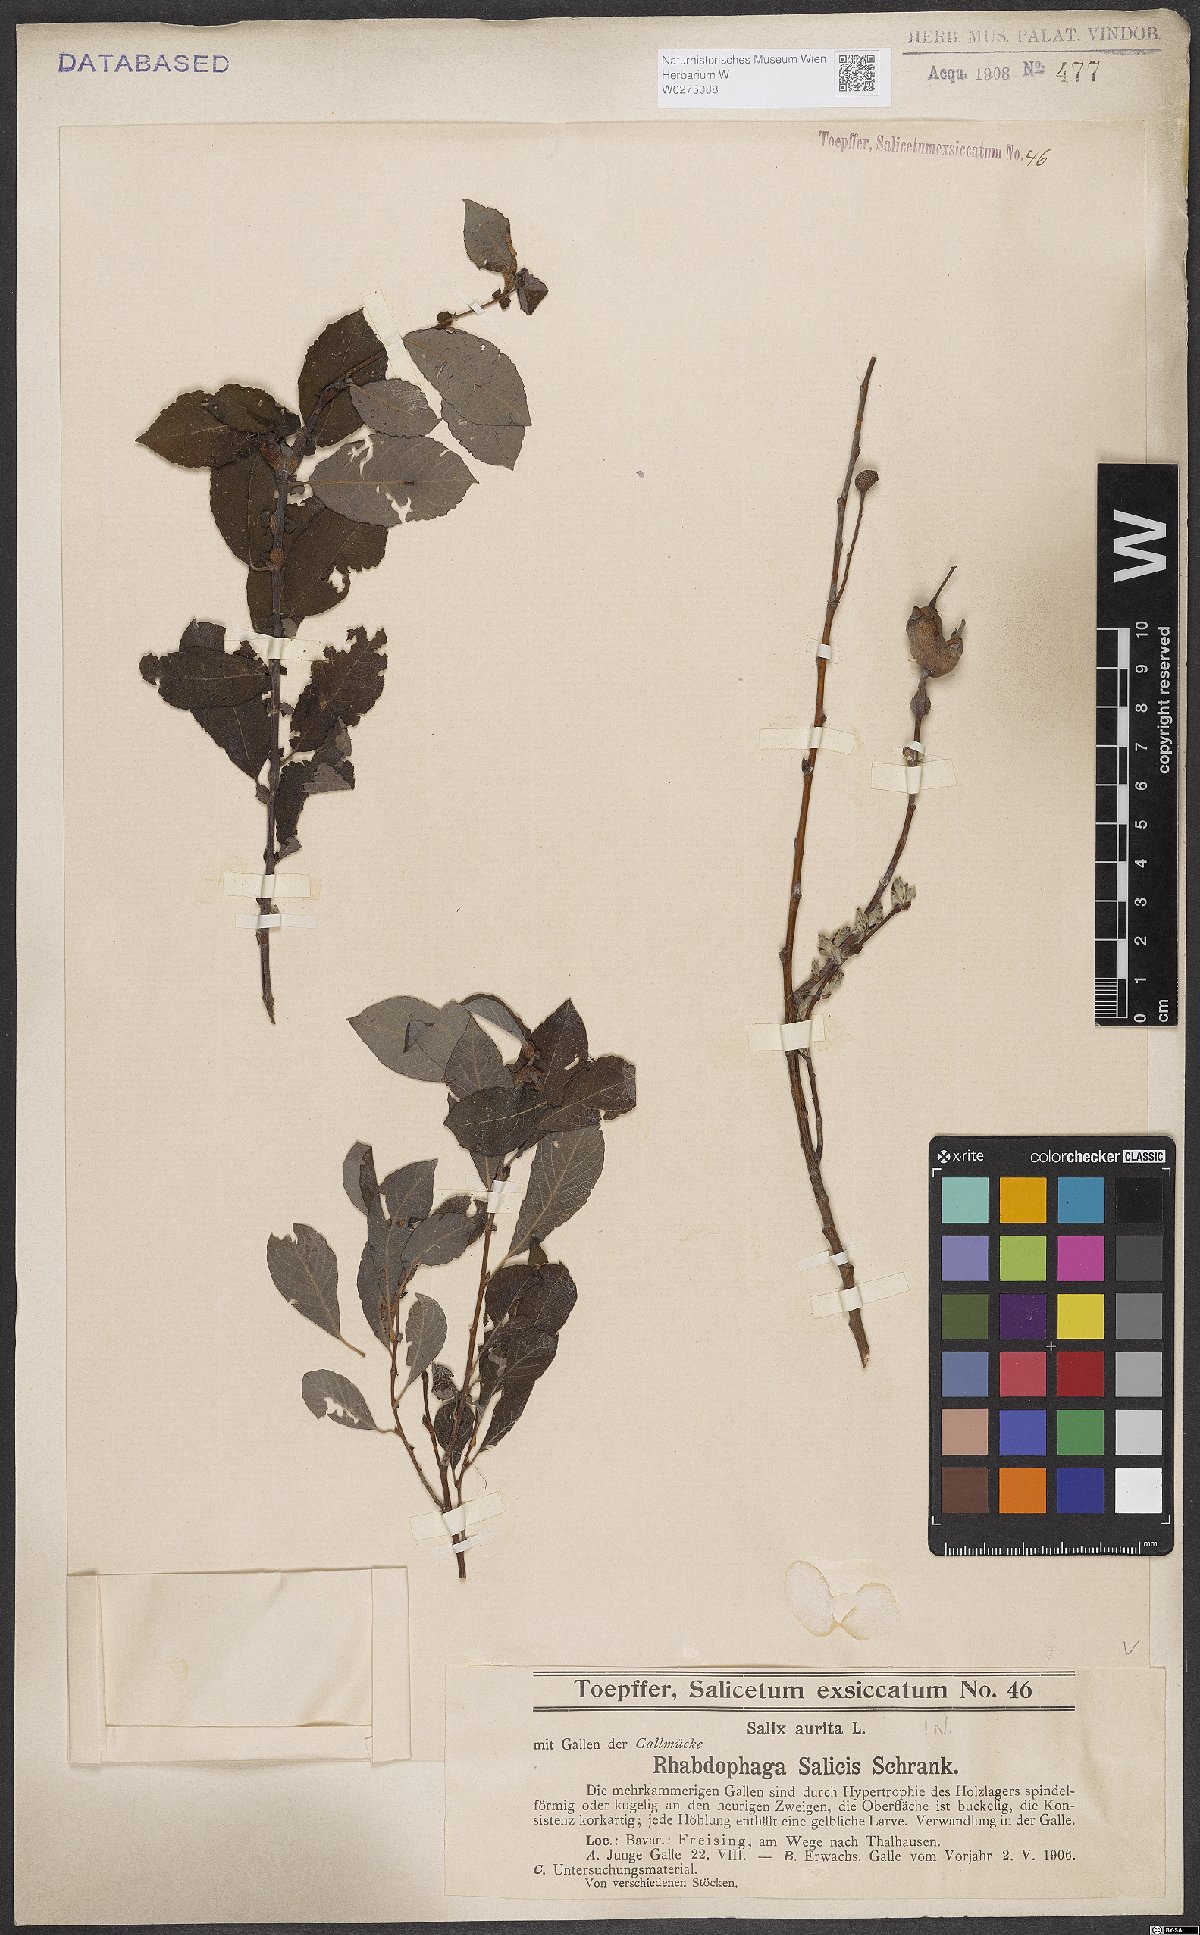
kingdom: Plantae
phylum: Tracheophyta
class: Magnoliopsida
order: Malpighiales
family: Salicaceae
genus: Salix
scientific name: Salix aurita
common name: Eared willow
